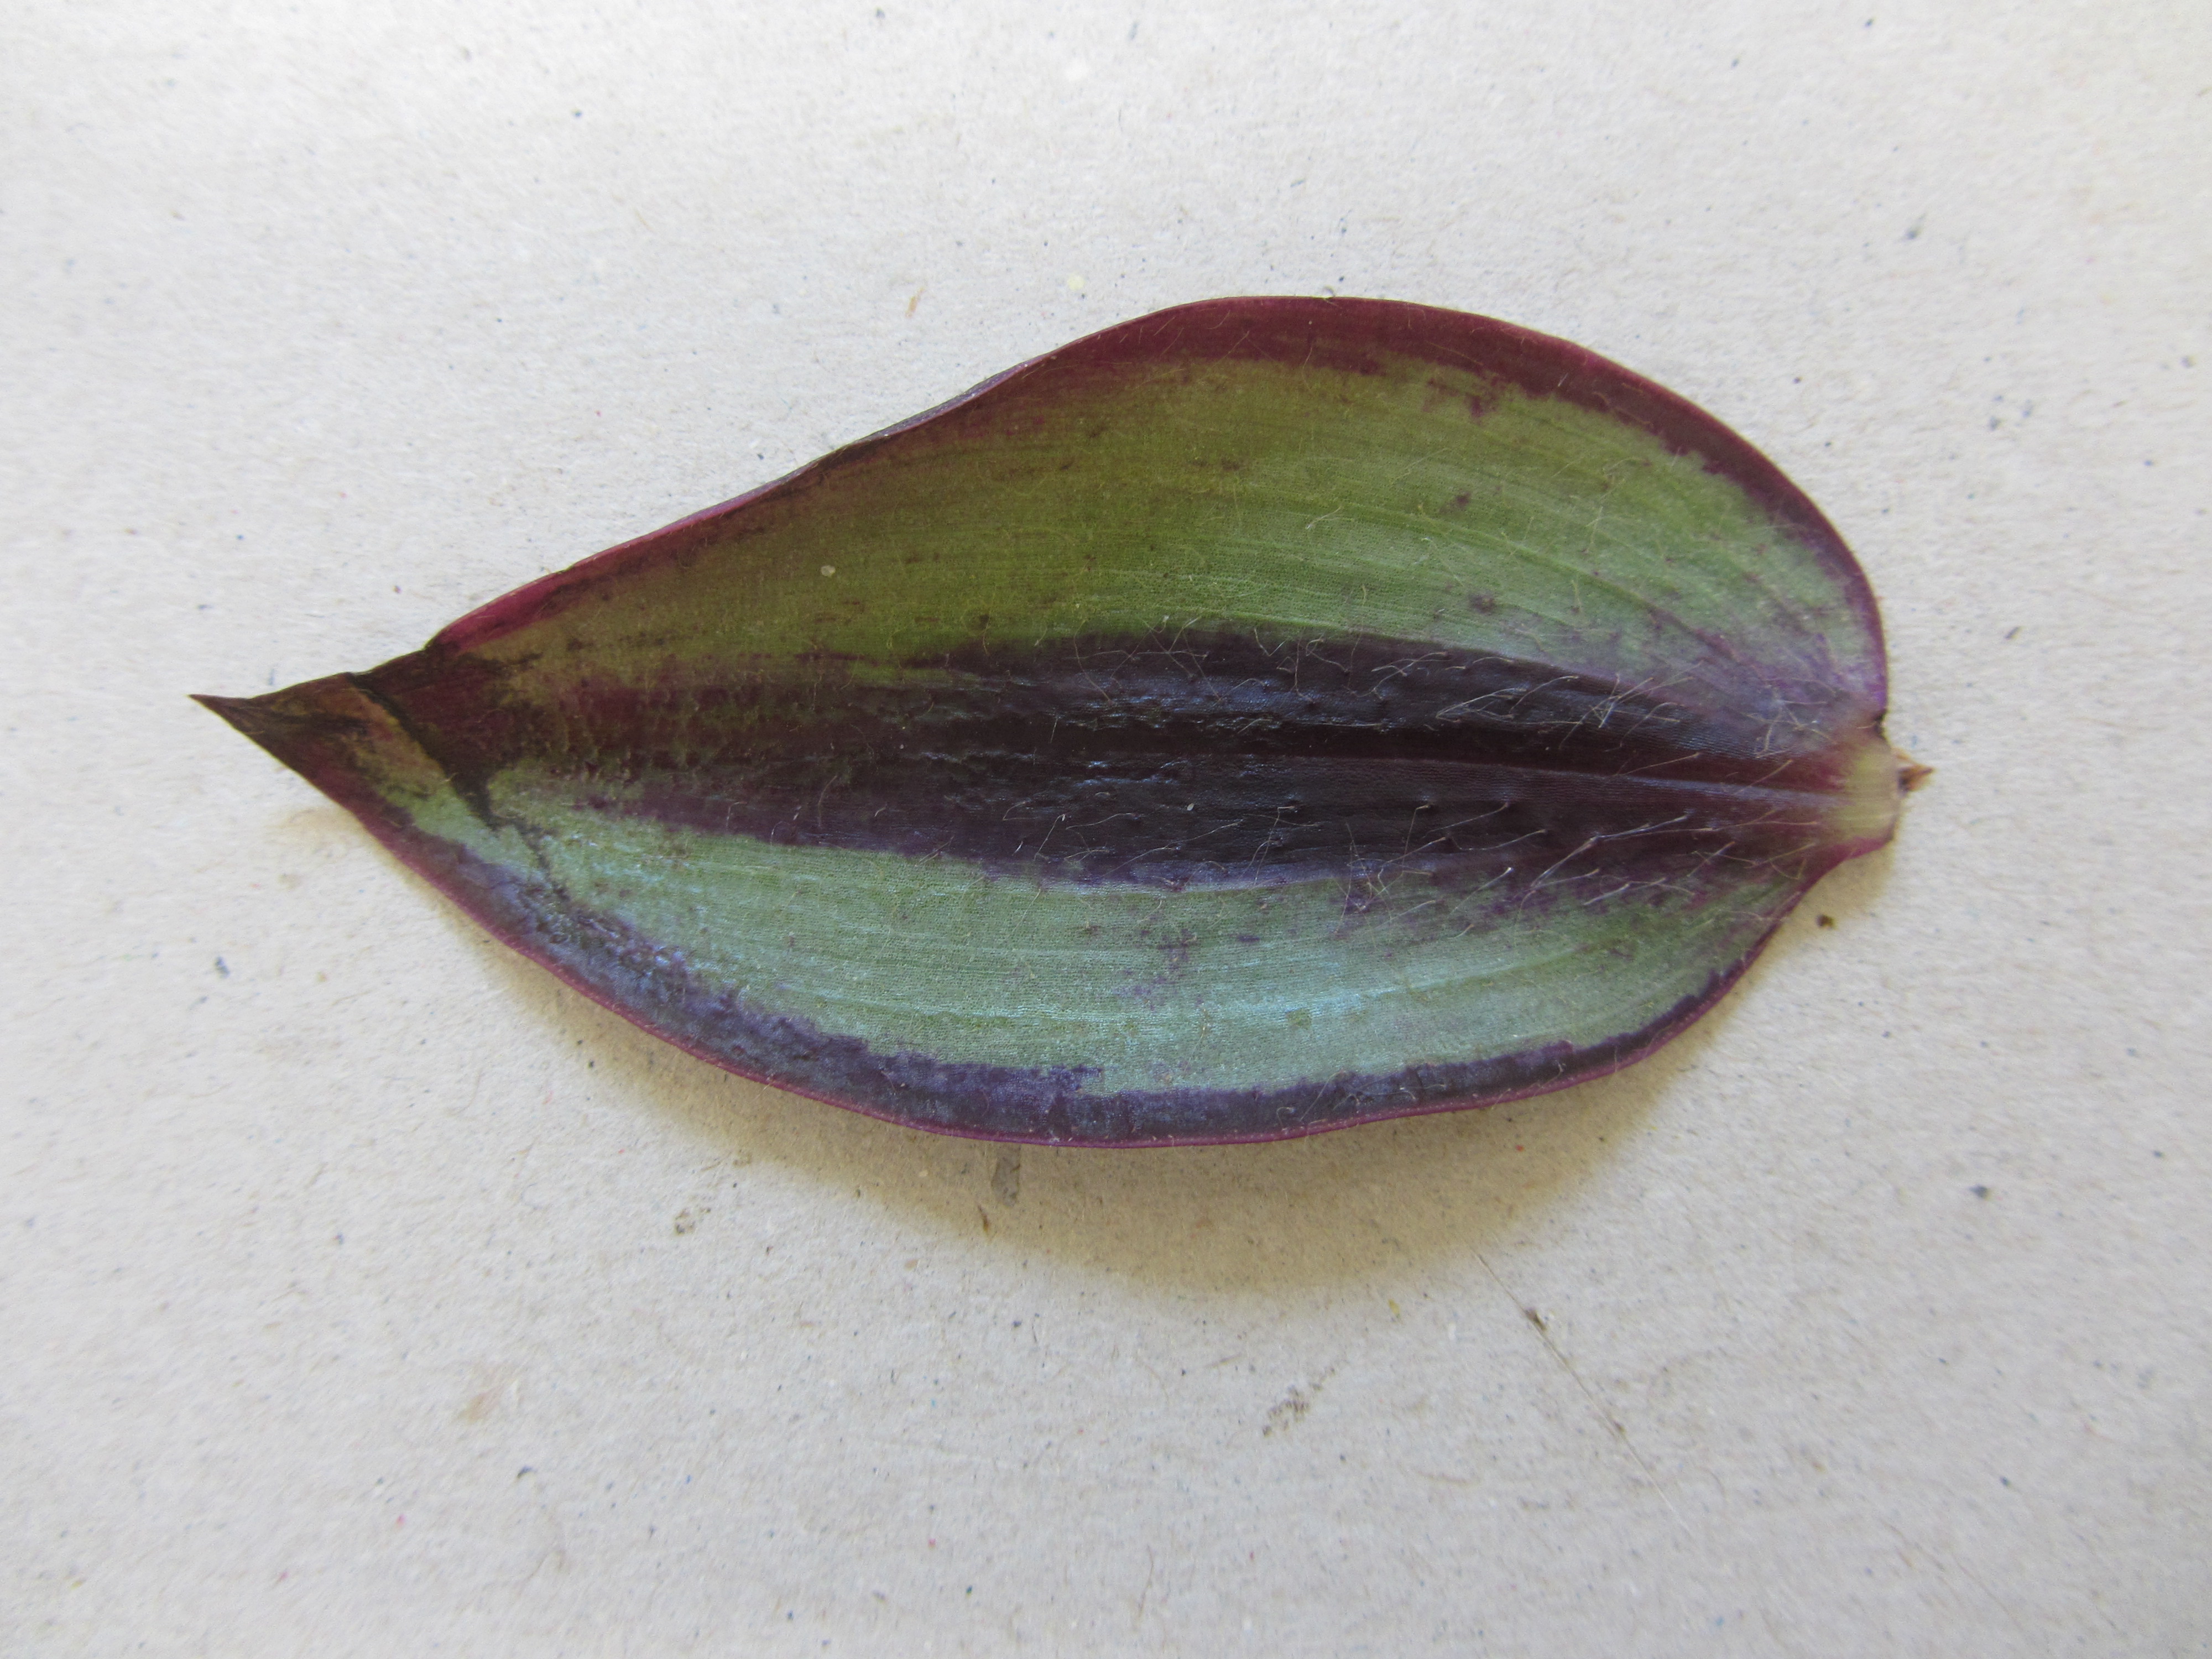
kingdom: Plantae
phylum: Tracheophyta
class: Liliopsida
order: Commelinales
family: Commelinaceae
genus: Tradescantia
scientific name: Tradescantia zebrina
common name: Inchplant
